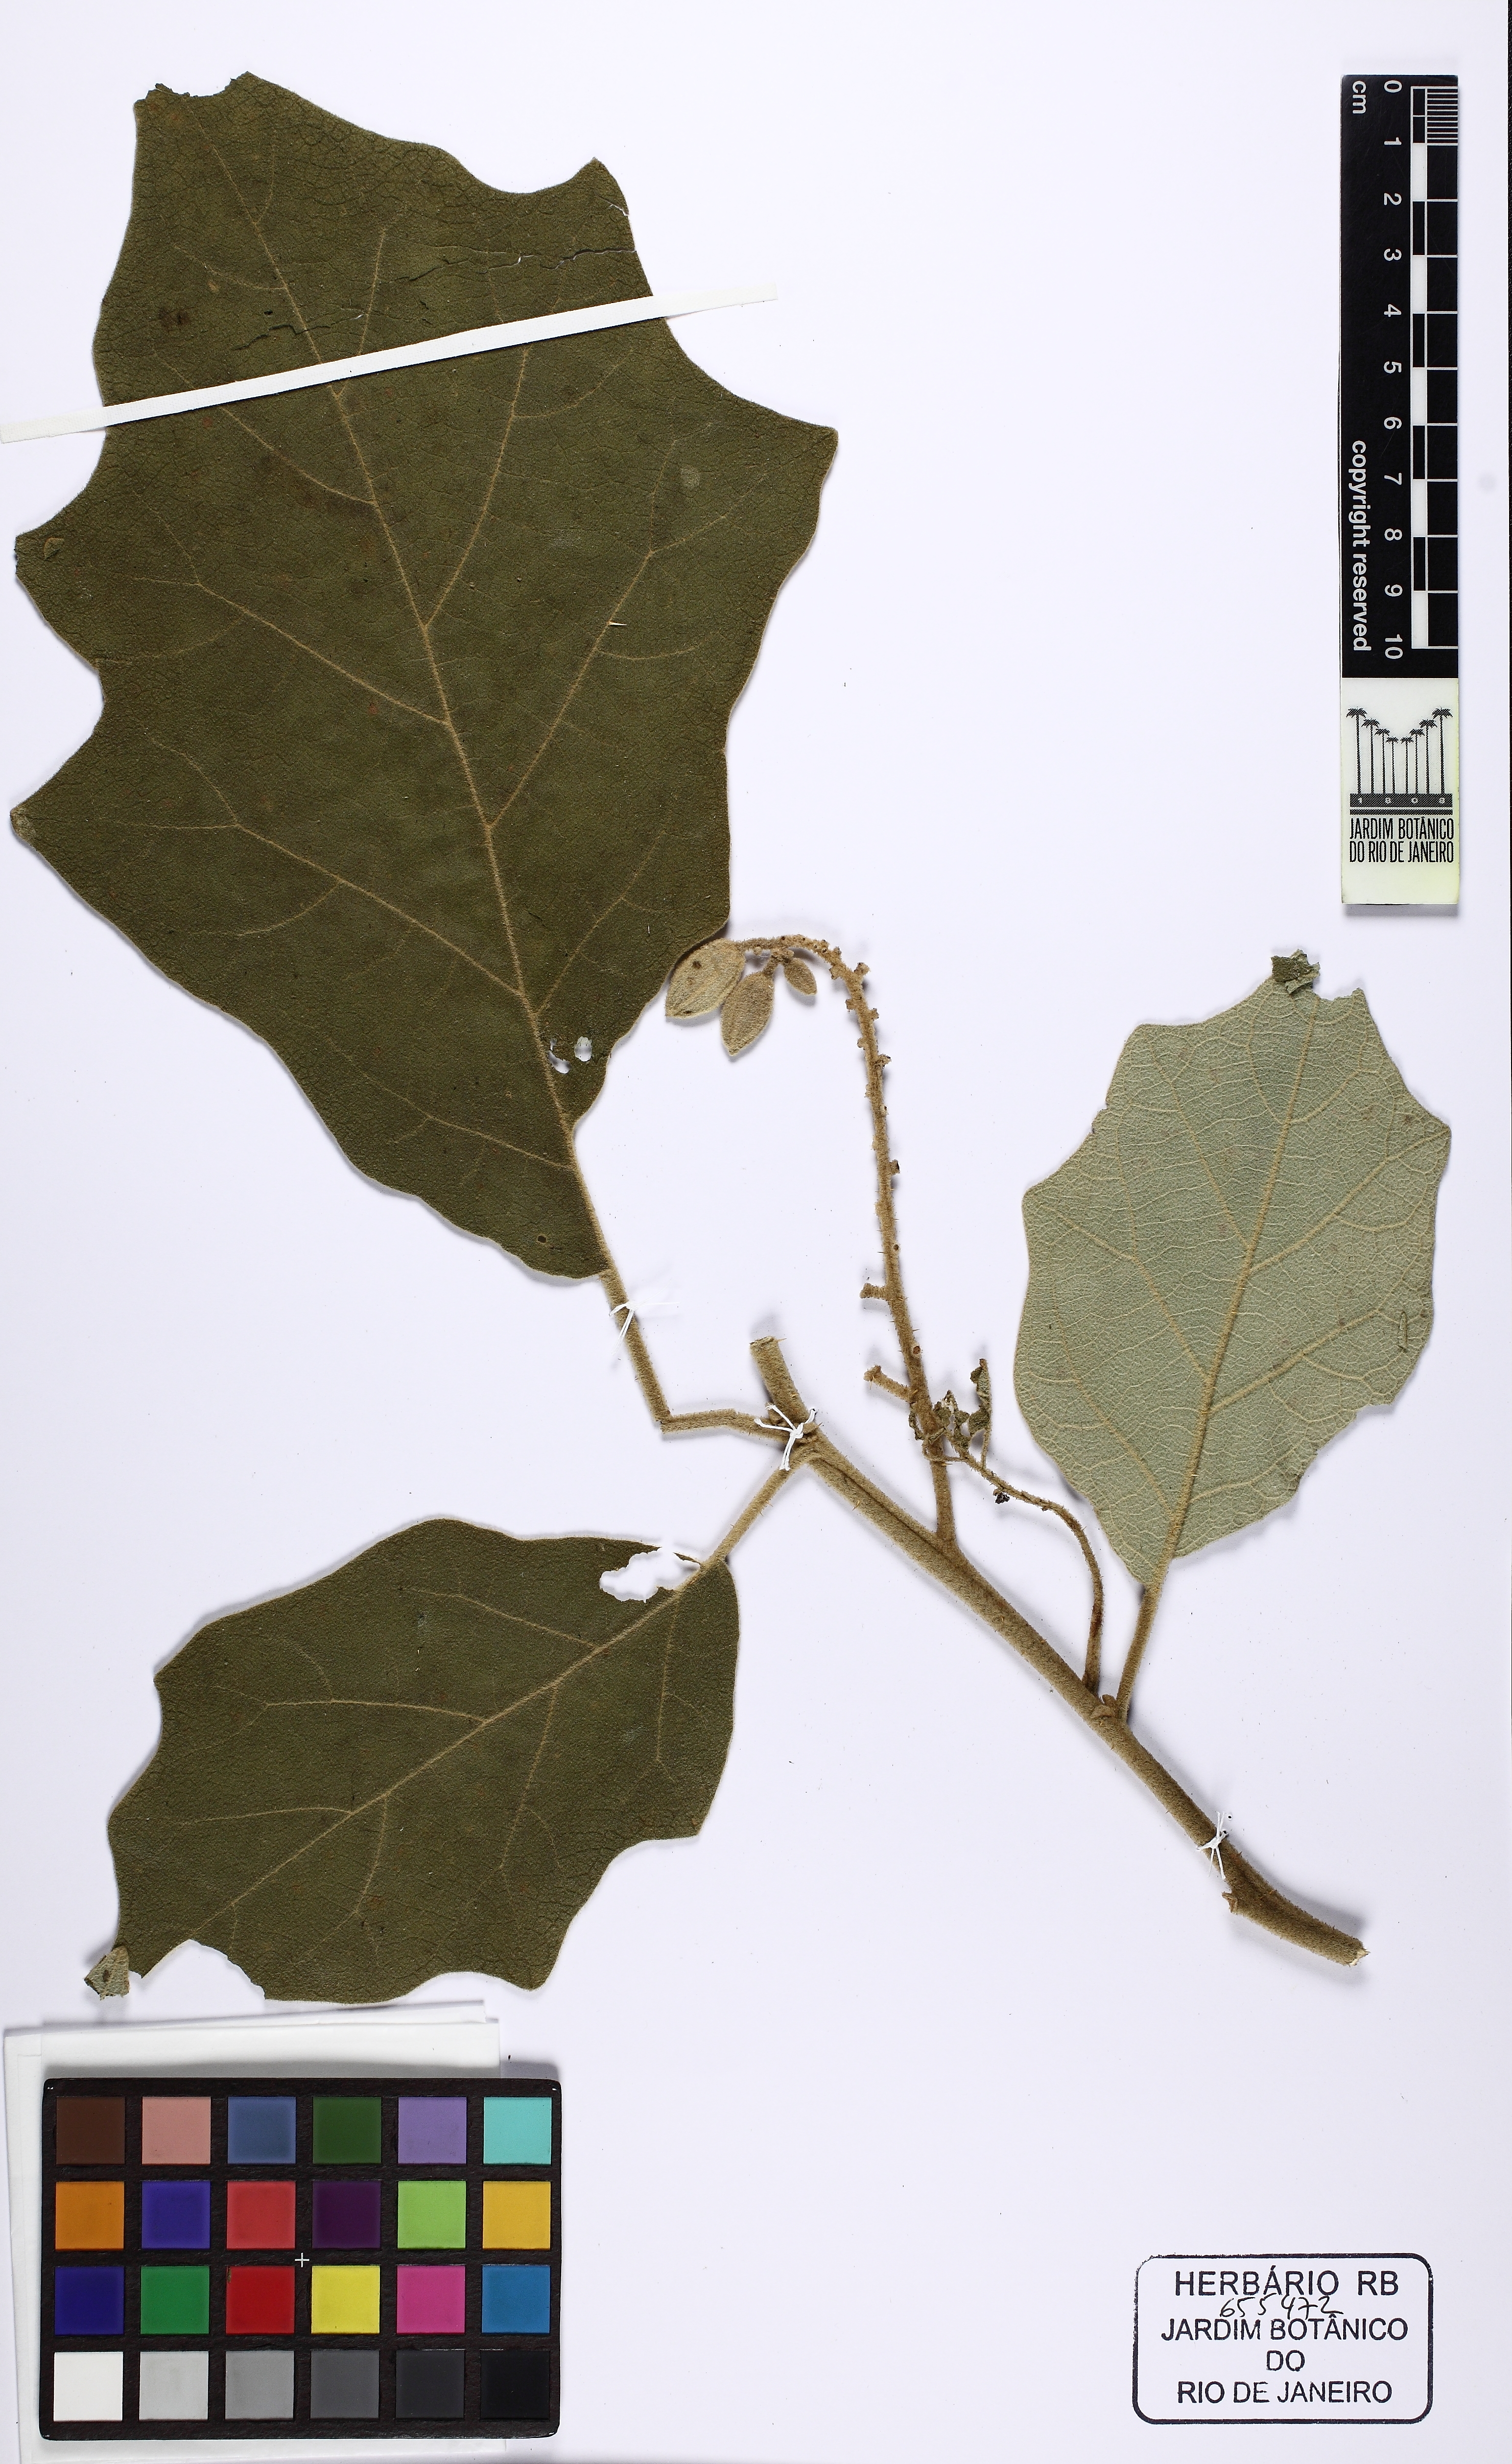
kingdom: Plantae
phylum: Tracheophyta
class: Magnoliopsida
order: Solanales
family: Solanaceae
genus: Solanum
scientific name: Solanum crinitum
